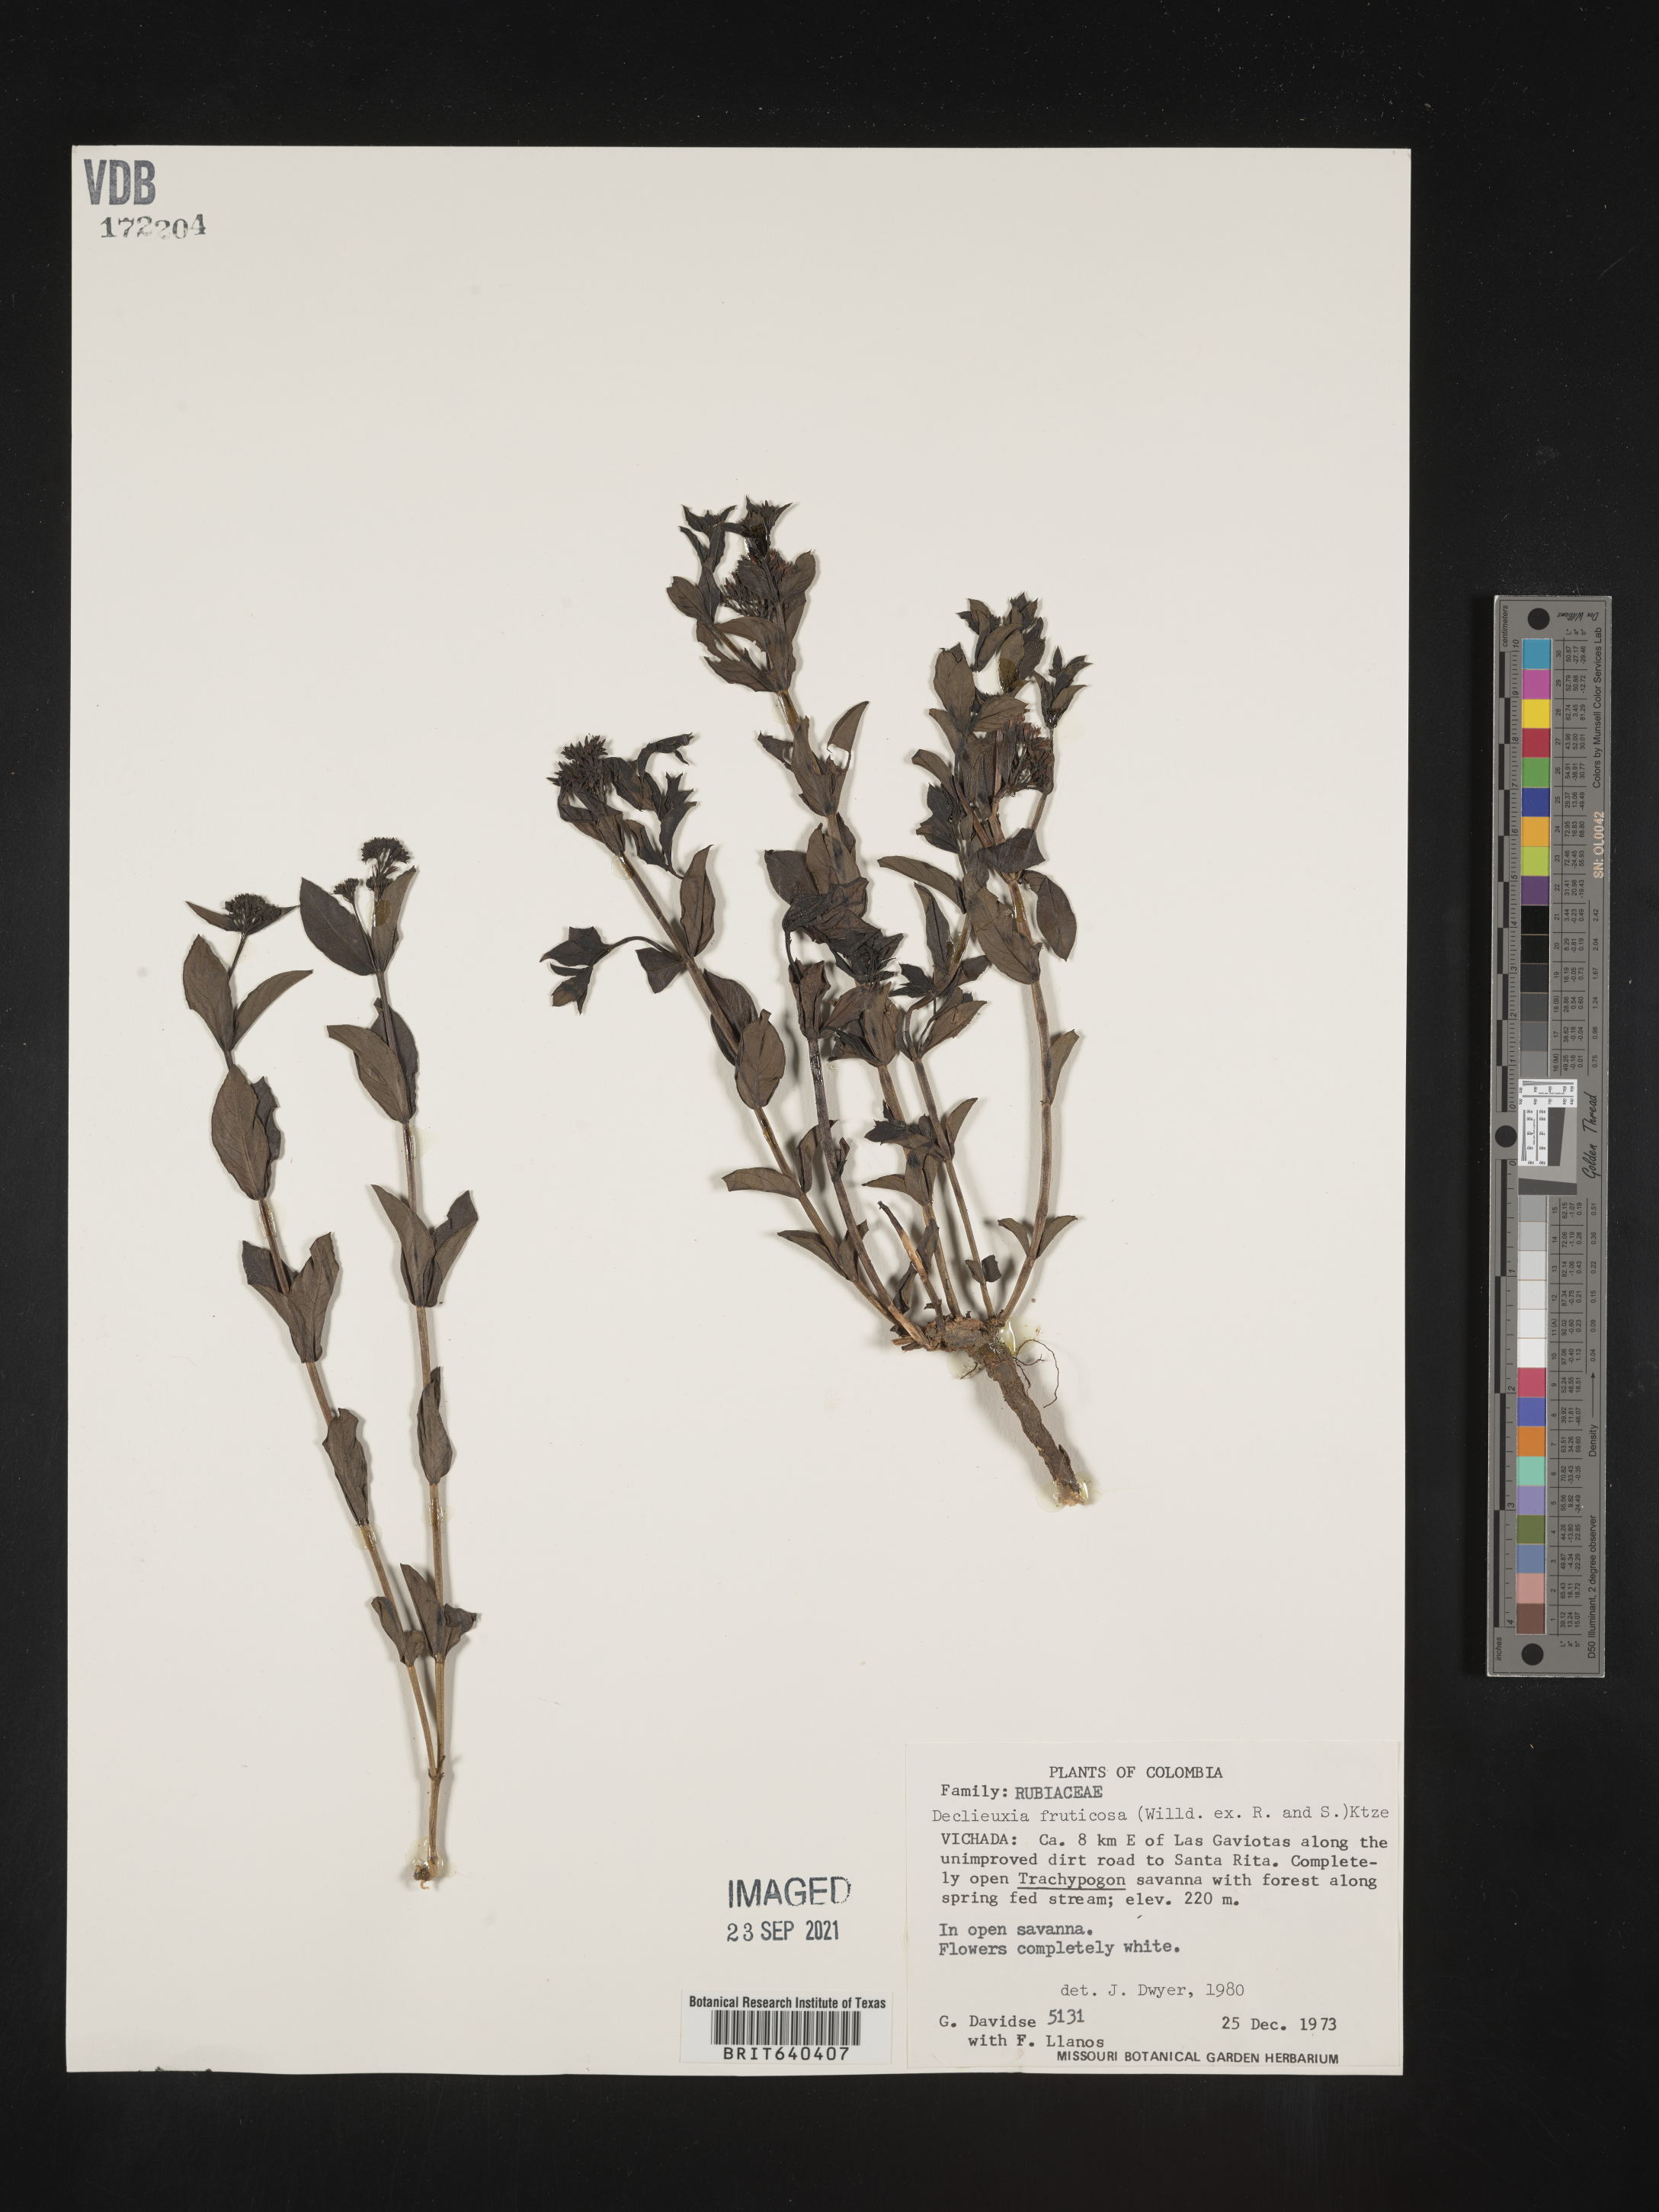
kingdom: Plantae
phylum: Tracheophyta
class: Magnoliopsida
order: Gentianales
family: Rubiaceae
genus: Declieuxia
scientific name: Declieuxia
